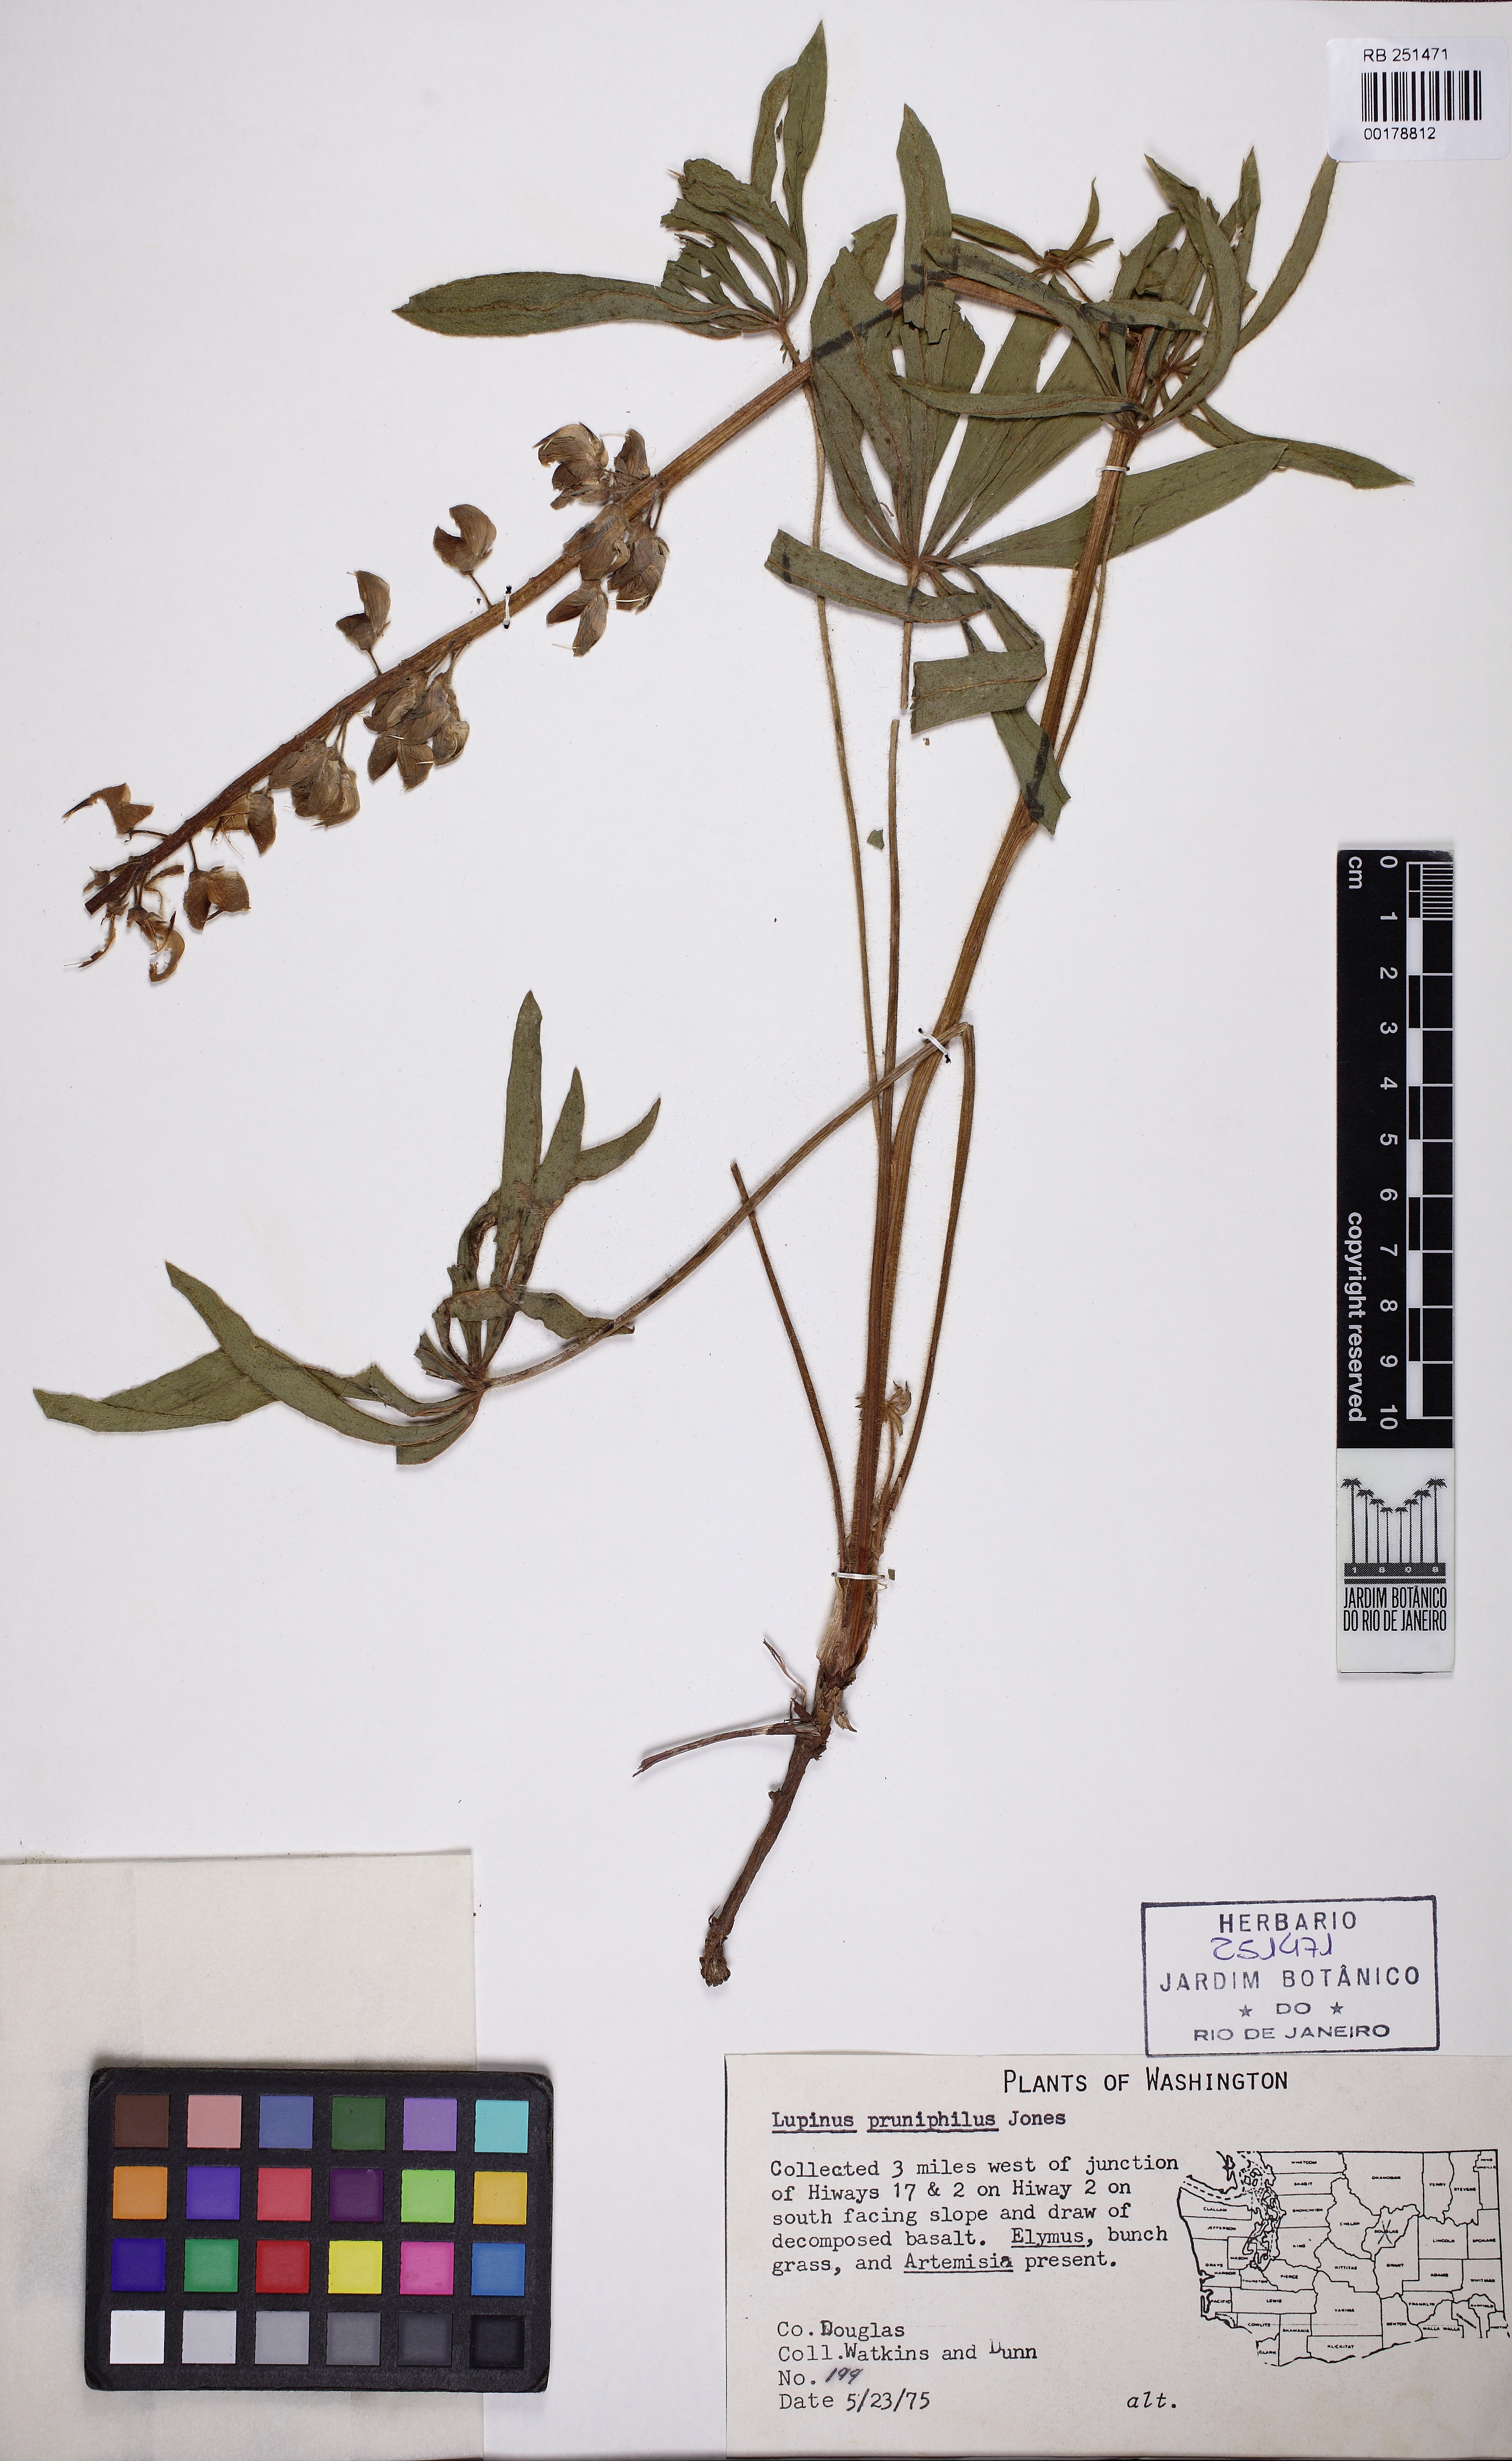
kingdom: Plantae
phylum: Tracheophyta
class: Magnoliopsida
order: Fabales
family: Fabaceae
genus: Lupinus
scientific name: Lupinus prunophilus
